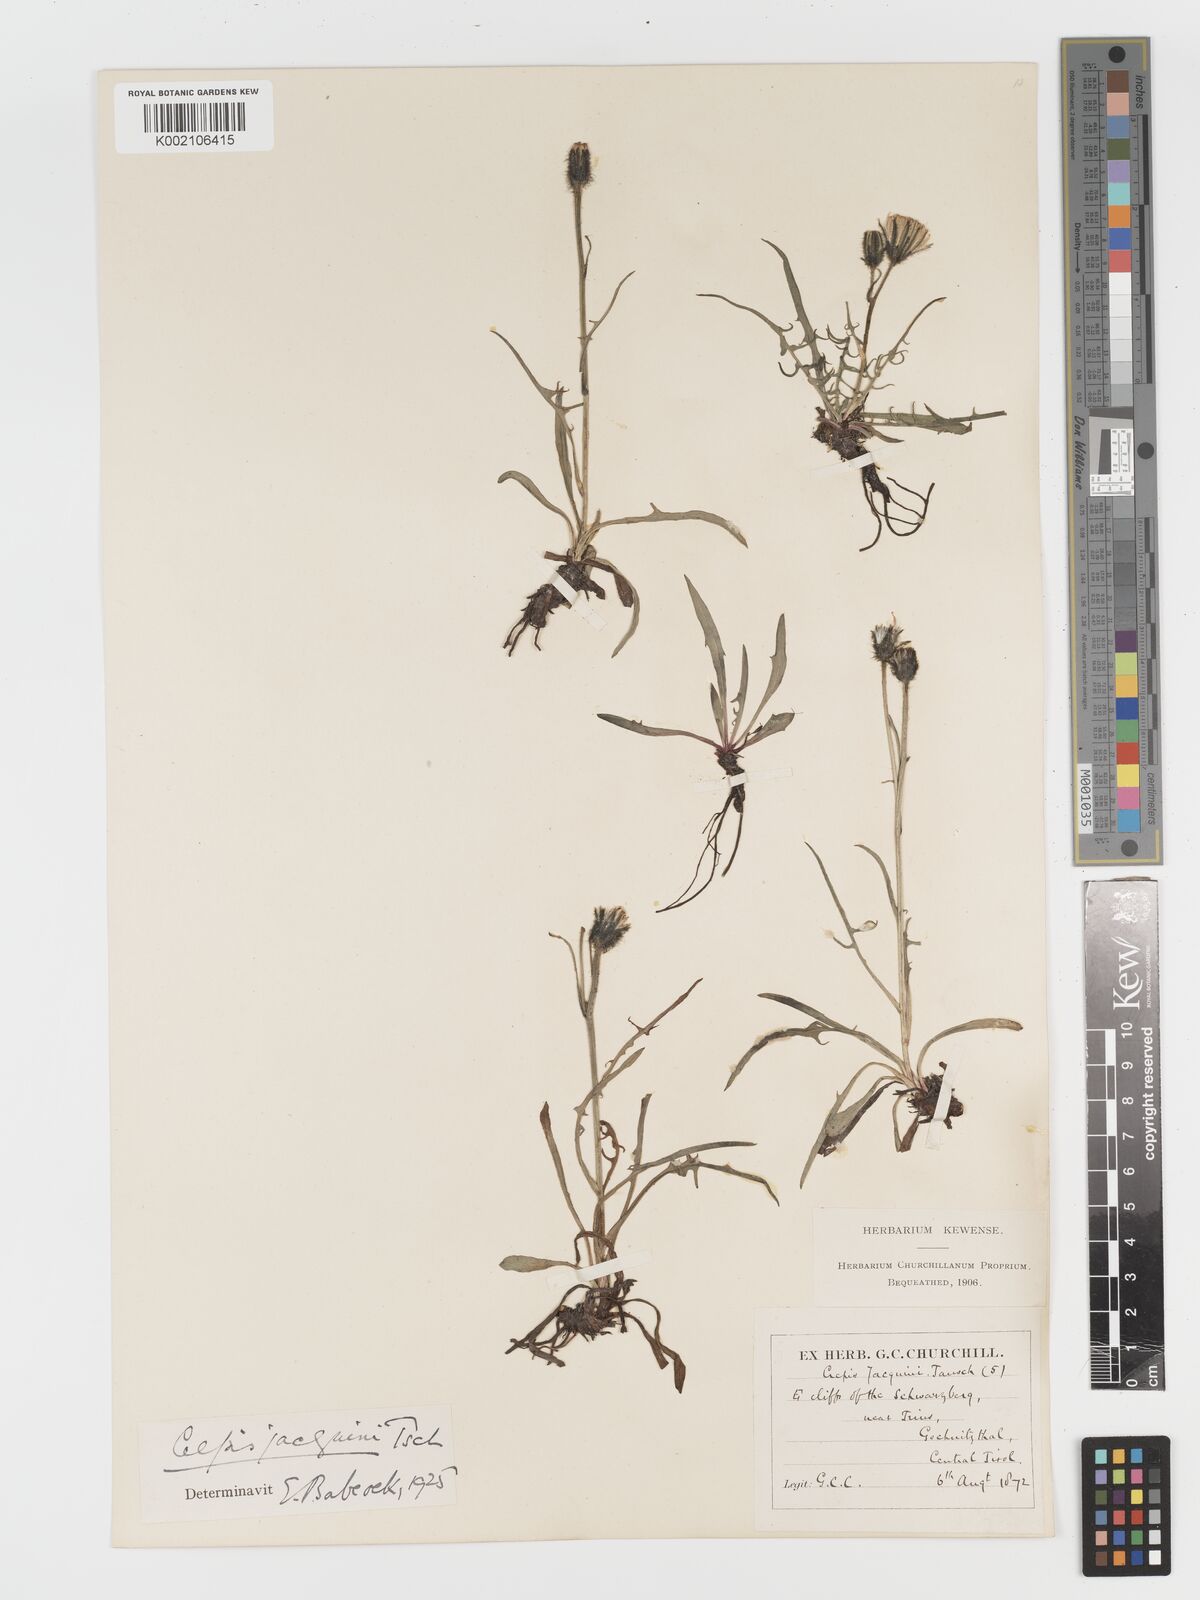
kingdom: Plantae
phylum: Tracheophyta
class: Magnoliopsida
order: Asterales
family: Asteraceae
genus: Crepis
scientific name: Crepis jacquinii
